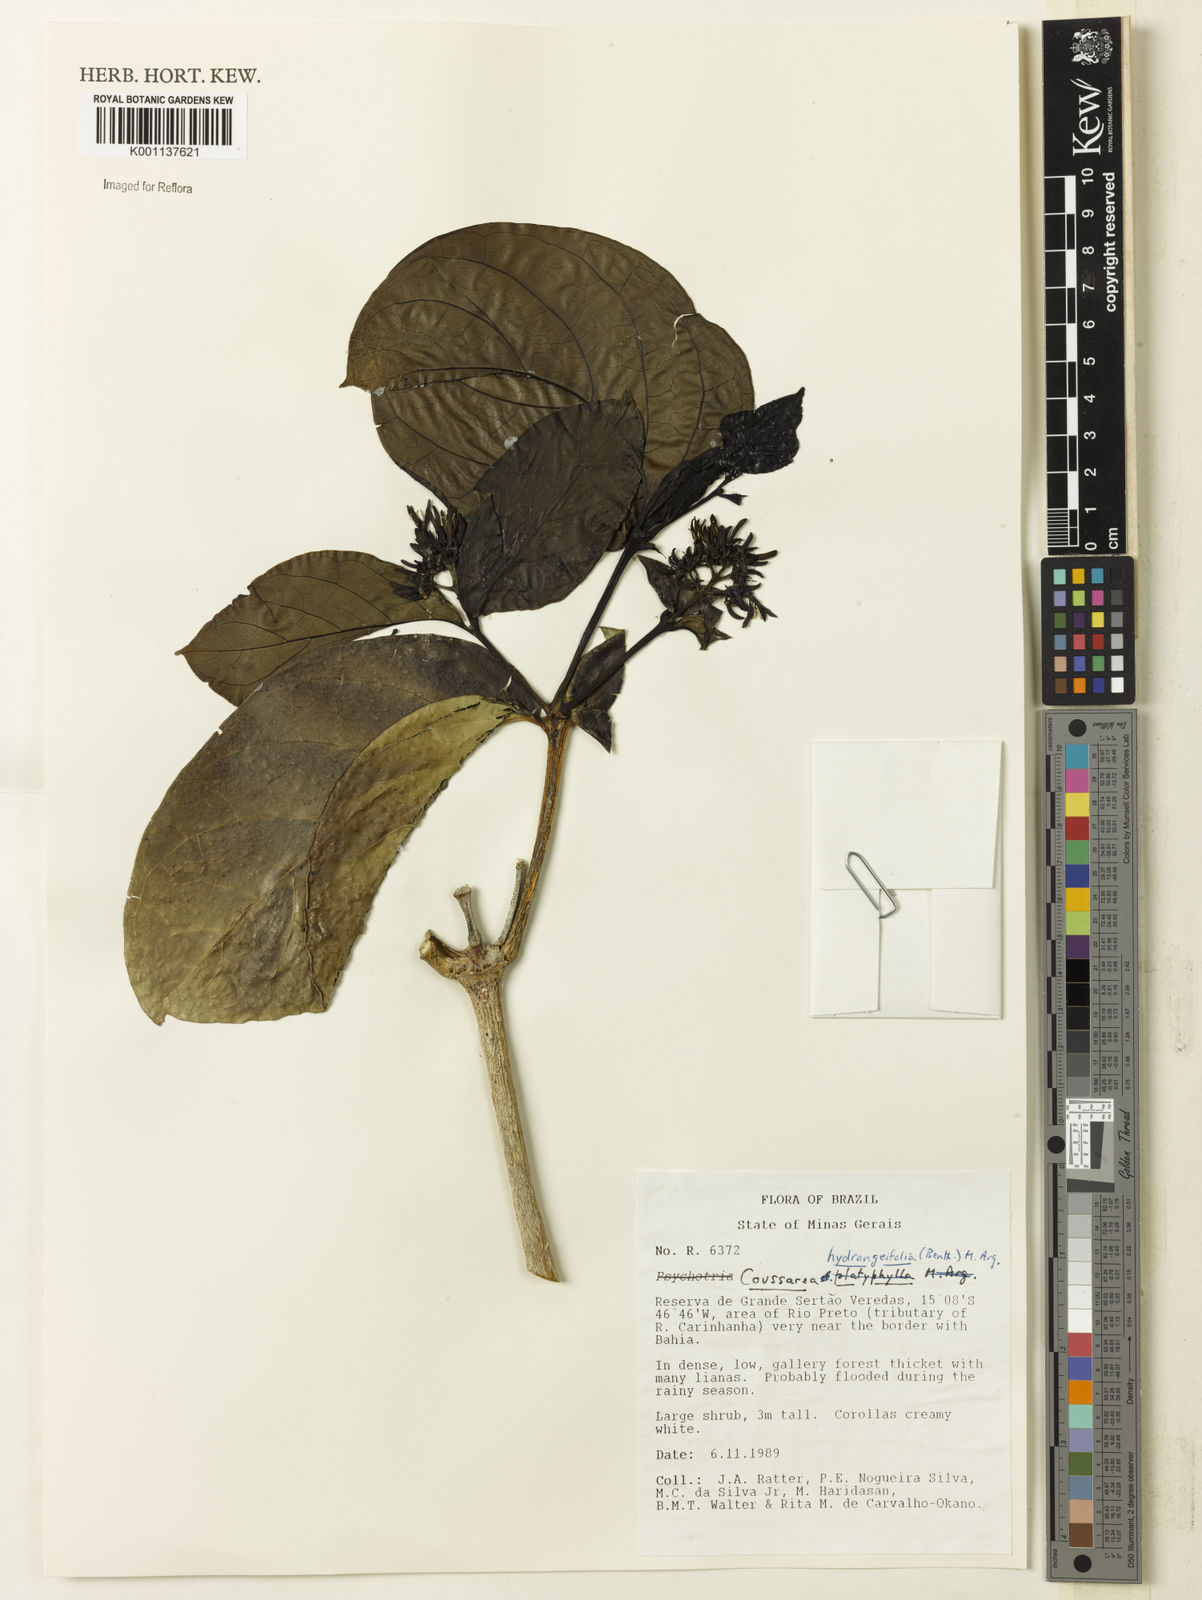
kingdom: Plantae
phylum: Tracheophyta
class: Magnoliopsida
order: Gentianales
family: Rubiaceae
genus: Coussarea
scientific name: Coussarea
